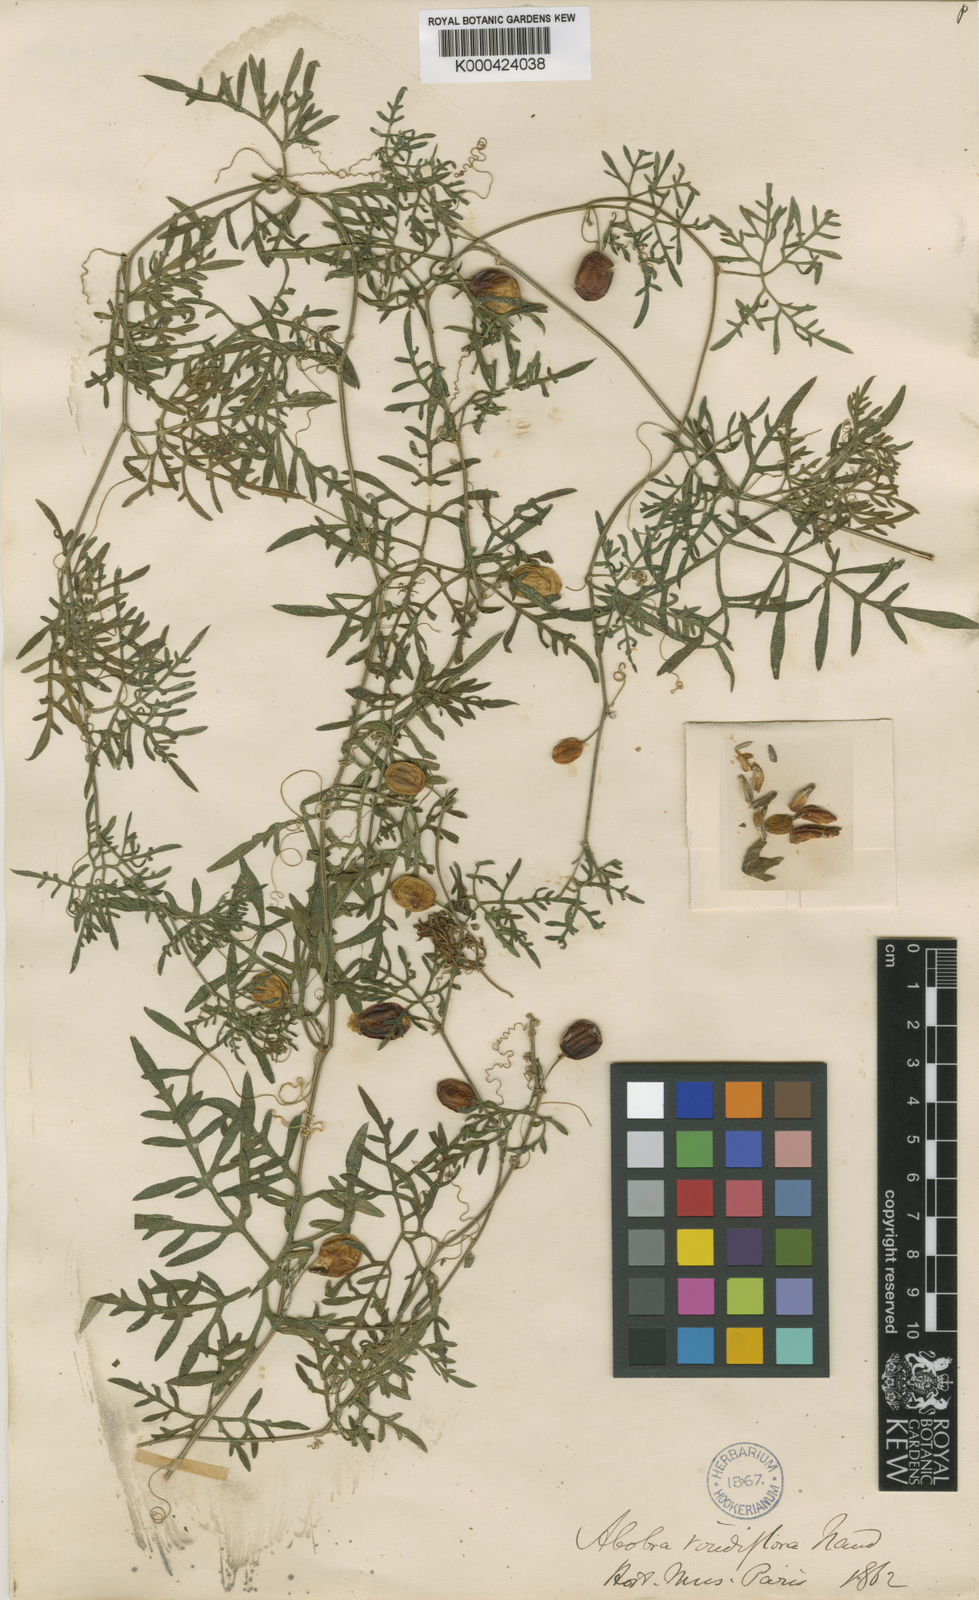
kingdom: Plantae
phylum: Tracheophyta
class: Magnoliopsida
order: Cucurbitales
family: Cucurbitaceae
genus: Abobra
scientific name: Abobra tenuifolia
